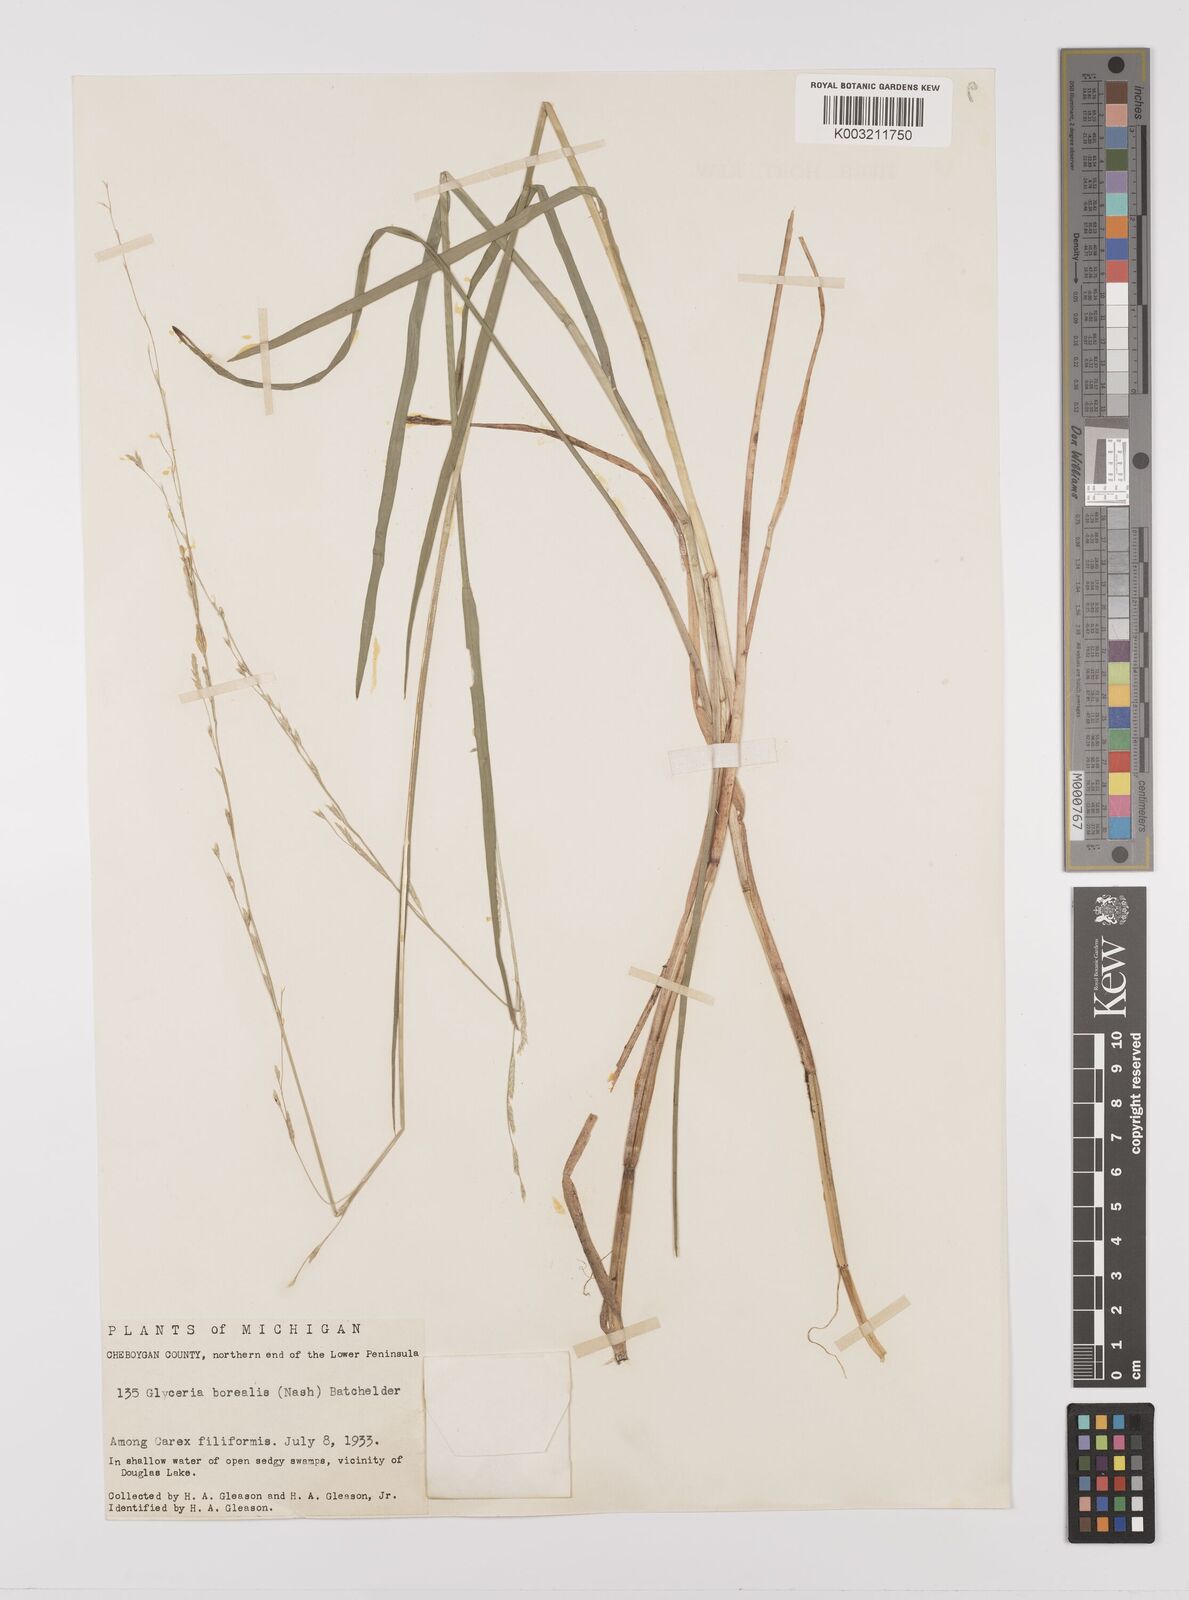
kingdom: Plantae
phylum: Tracheophyta
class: Liliopsida
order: Poales
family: Poaceae
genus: Glyceria
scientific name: Glyceria borealis
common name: Boreal glyceria
